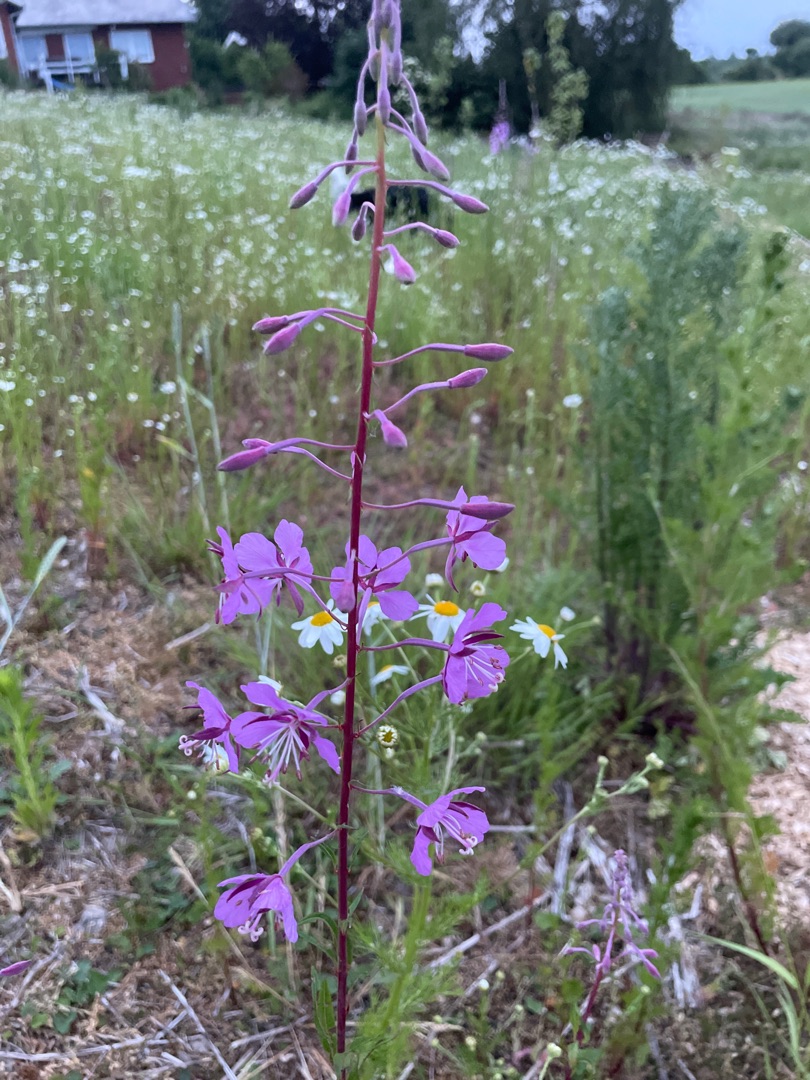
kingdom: Plantae
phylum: Tracheophyta
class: Magnoliopsida
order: Myrtales
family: Onagraceae
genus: Chamaenerion
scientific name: Chamaenerion angustifolium
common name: Gederams
